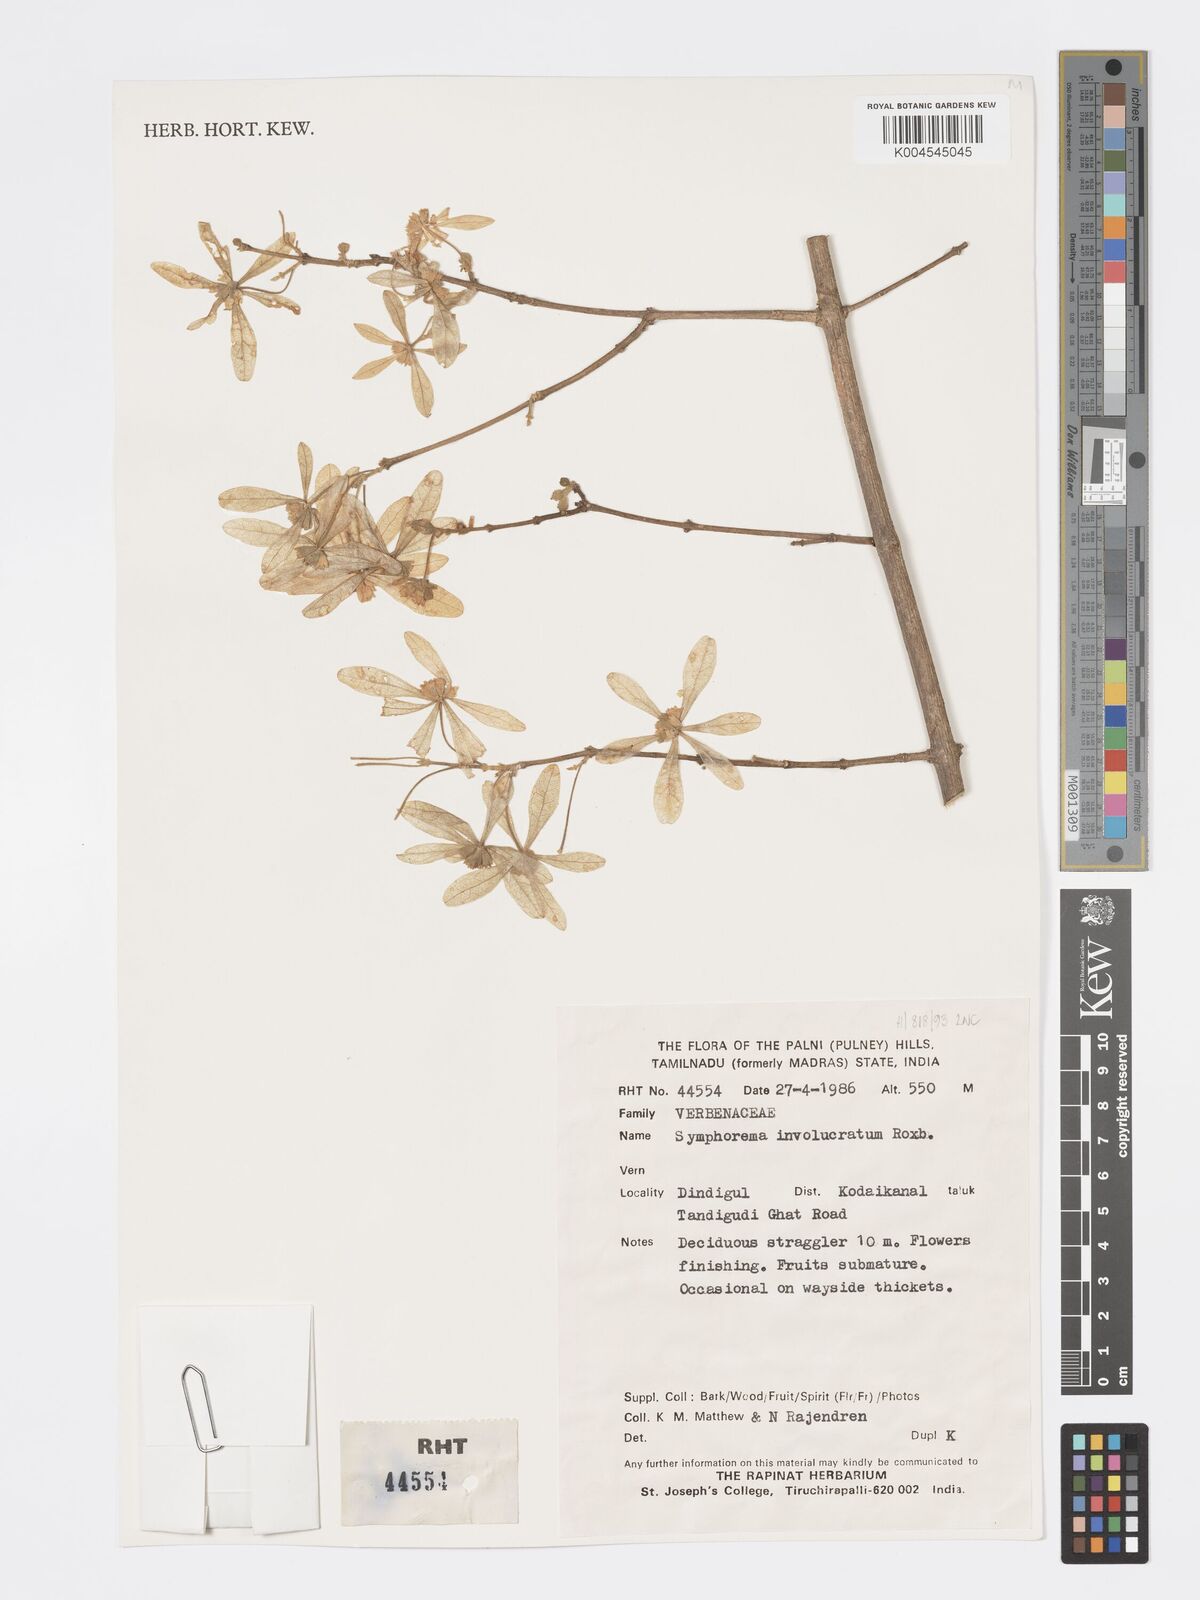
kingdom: Plantae
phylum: Tracheophyta
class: Magnoliopsida
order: Lamiales
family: Lamiaceae
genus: Symphorema
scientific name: Symphorema involucratum
